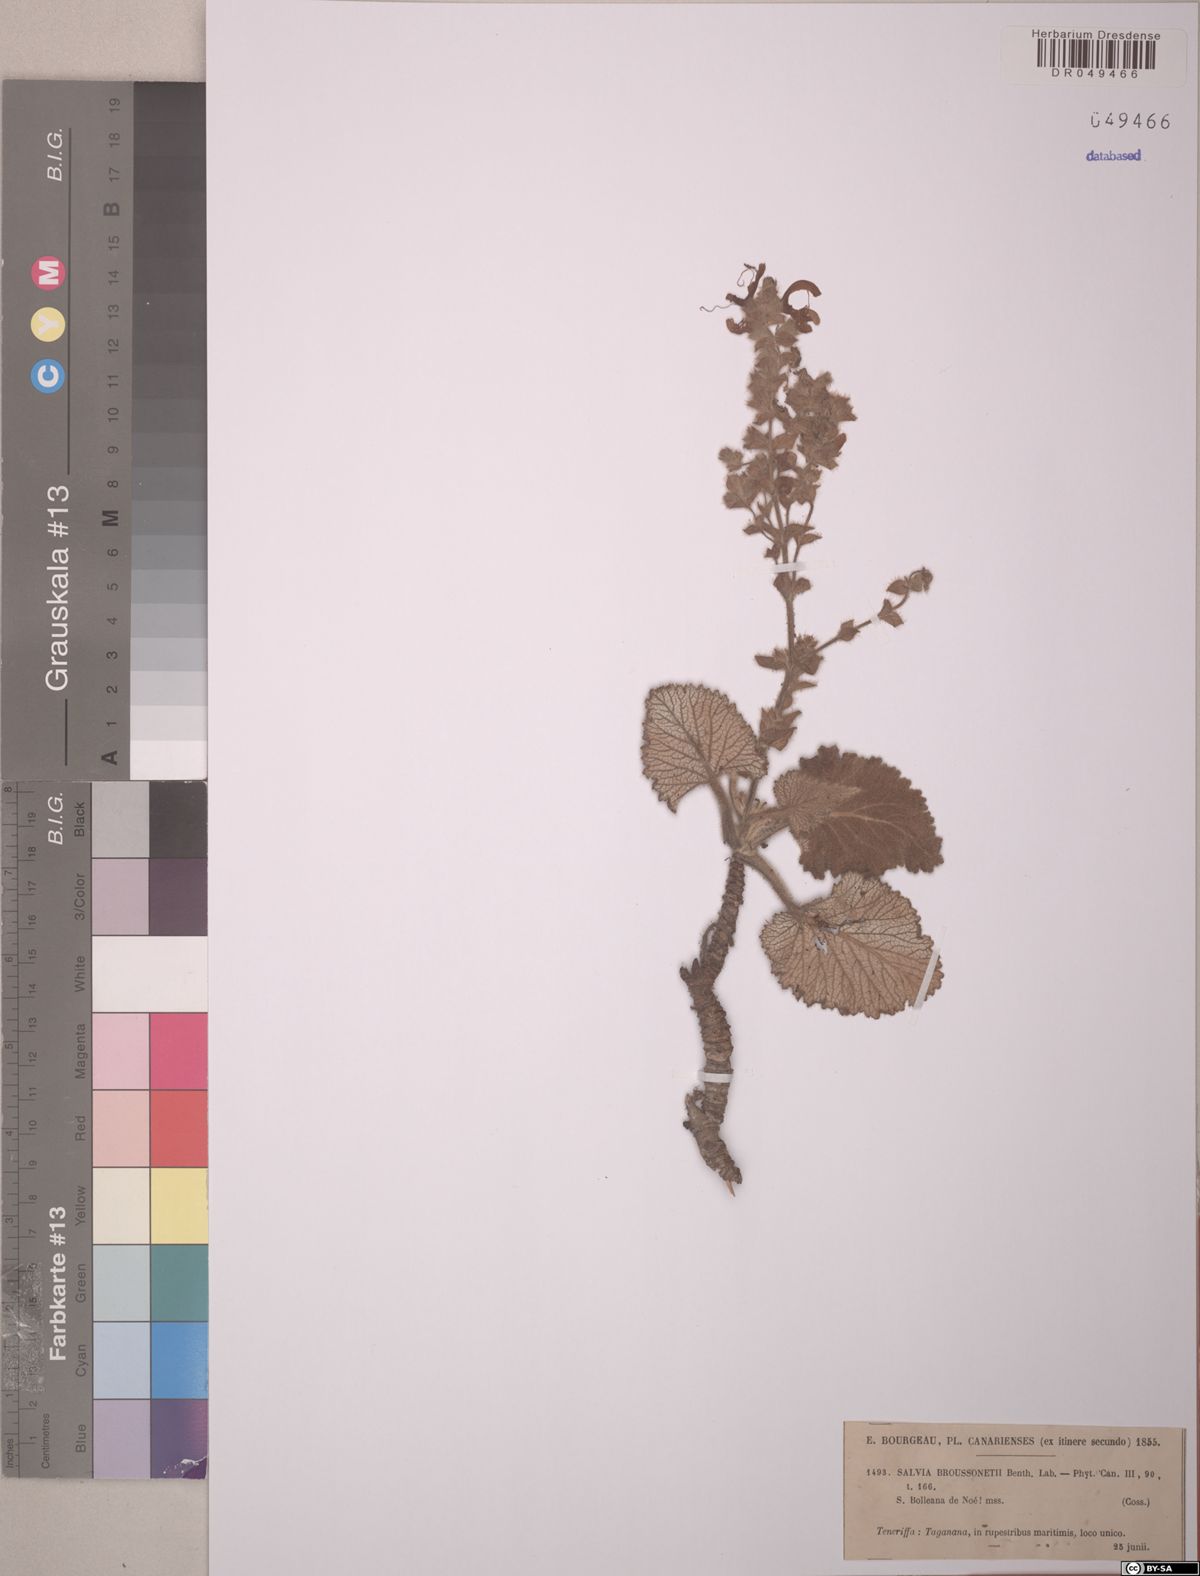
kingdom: Plantae
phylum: Tracheophyta
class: Magnoliopsida
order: Lamiales
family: Lamiaceae
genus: Salvia
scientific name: Salvia broussonetii
